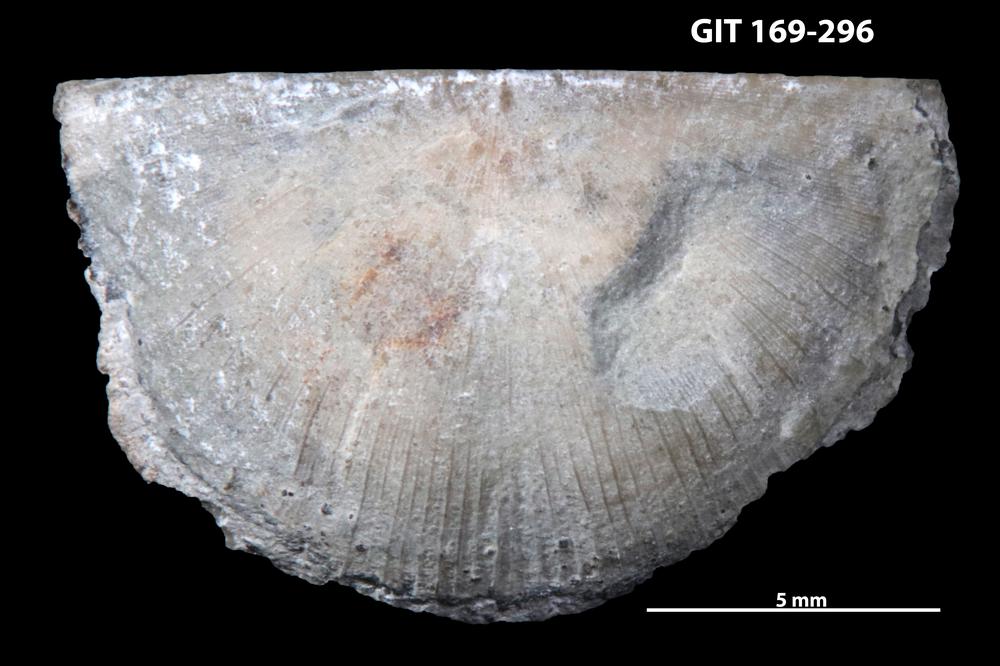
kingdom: Animalia
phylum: Brachiopoda
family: Amphistrophiidae
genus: Eoamphistrophia
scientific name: Eoamphistrophia whittardi
